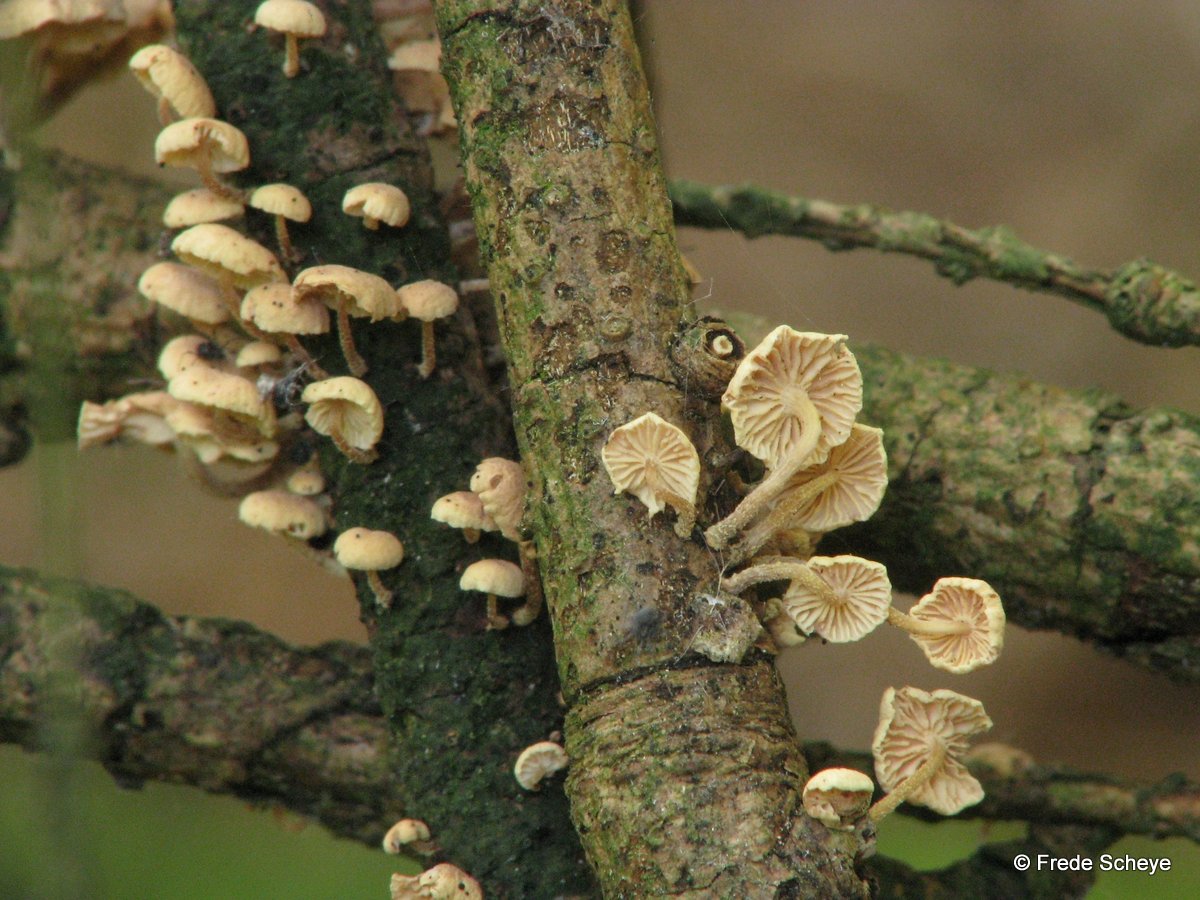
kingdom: Fungi
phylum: Basidiomycota
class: Agaricomycetes
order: Agaricales
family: Omphalotaceae
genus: Collybiopsis
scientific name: Collybiopsis ramealis
